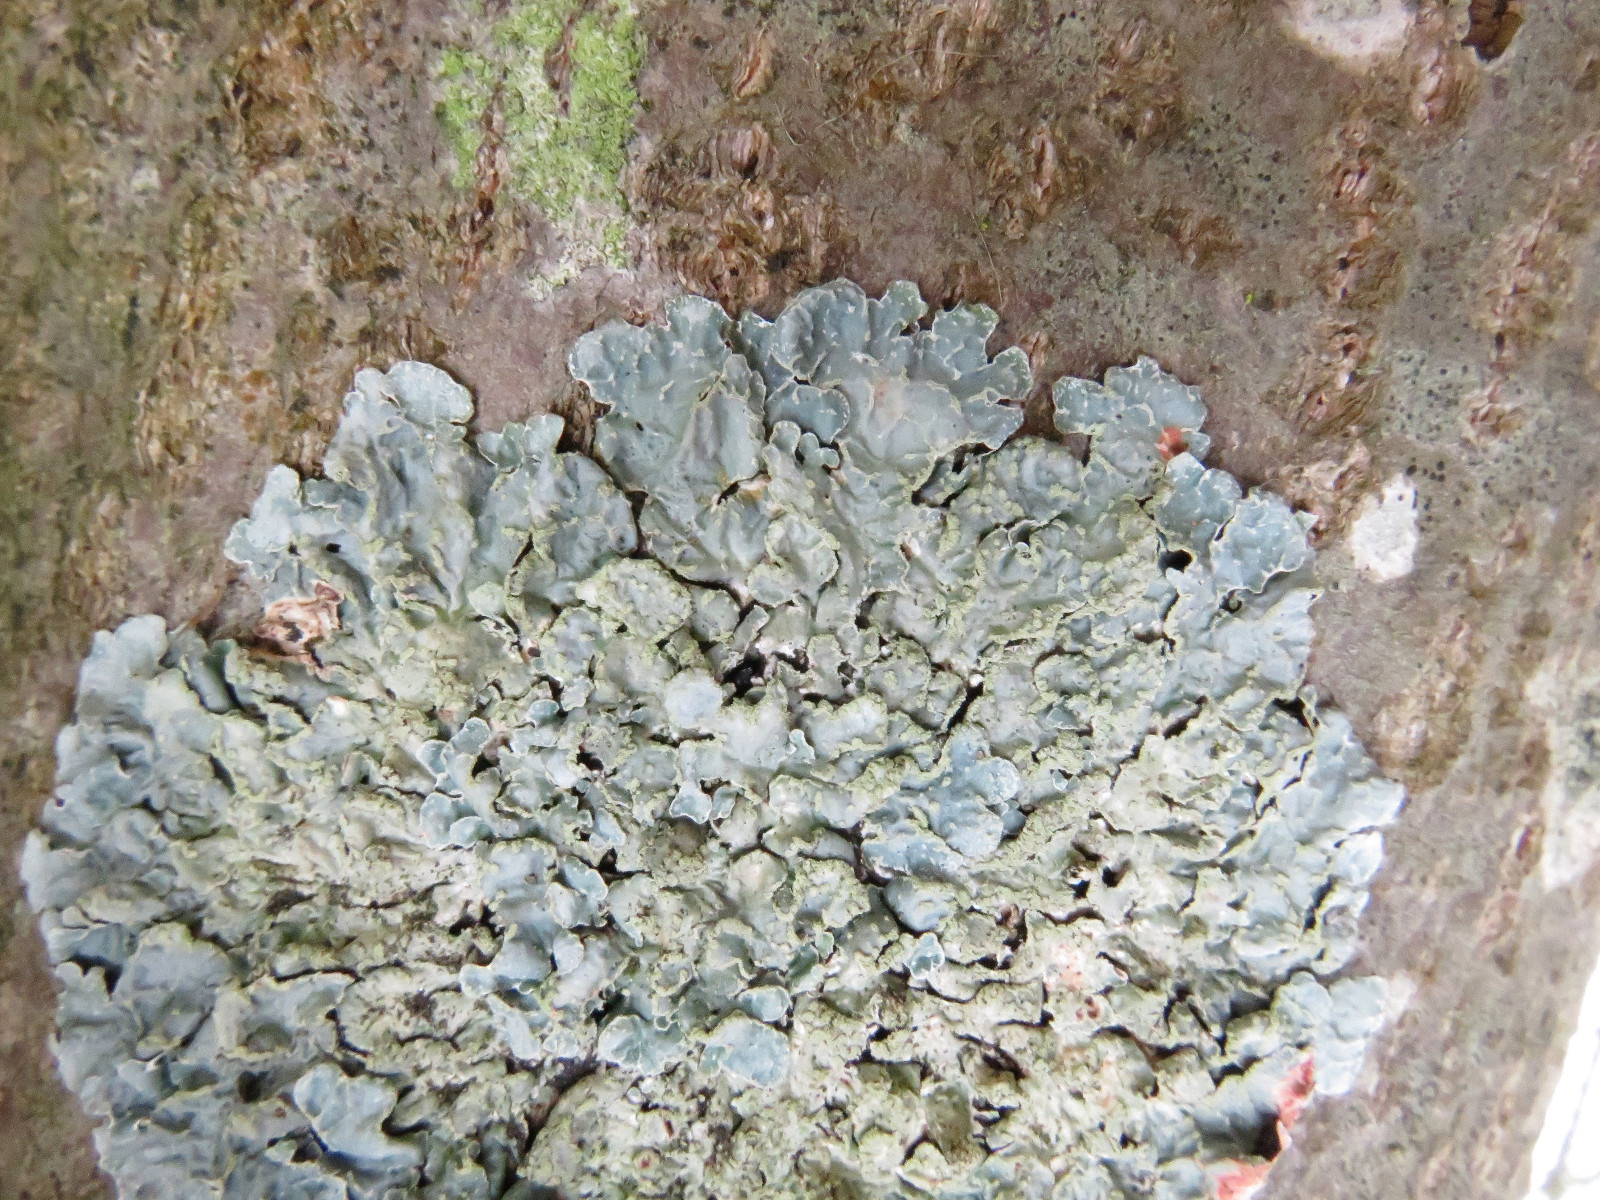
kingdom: Fungi
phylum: Ascomycota
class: Lecanoromycetes
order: Lecanorales
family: Parmeliaceae
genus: Parmelia
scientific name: Parmelia sulcata
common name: rynket skållav
